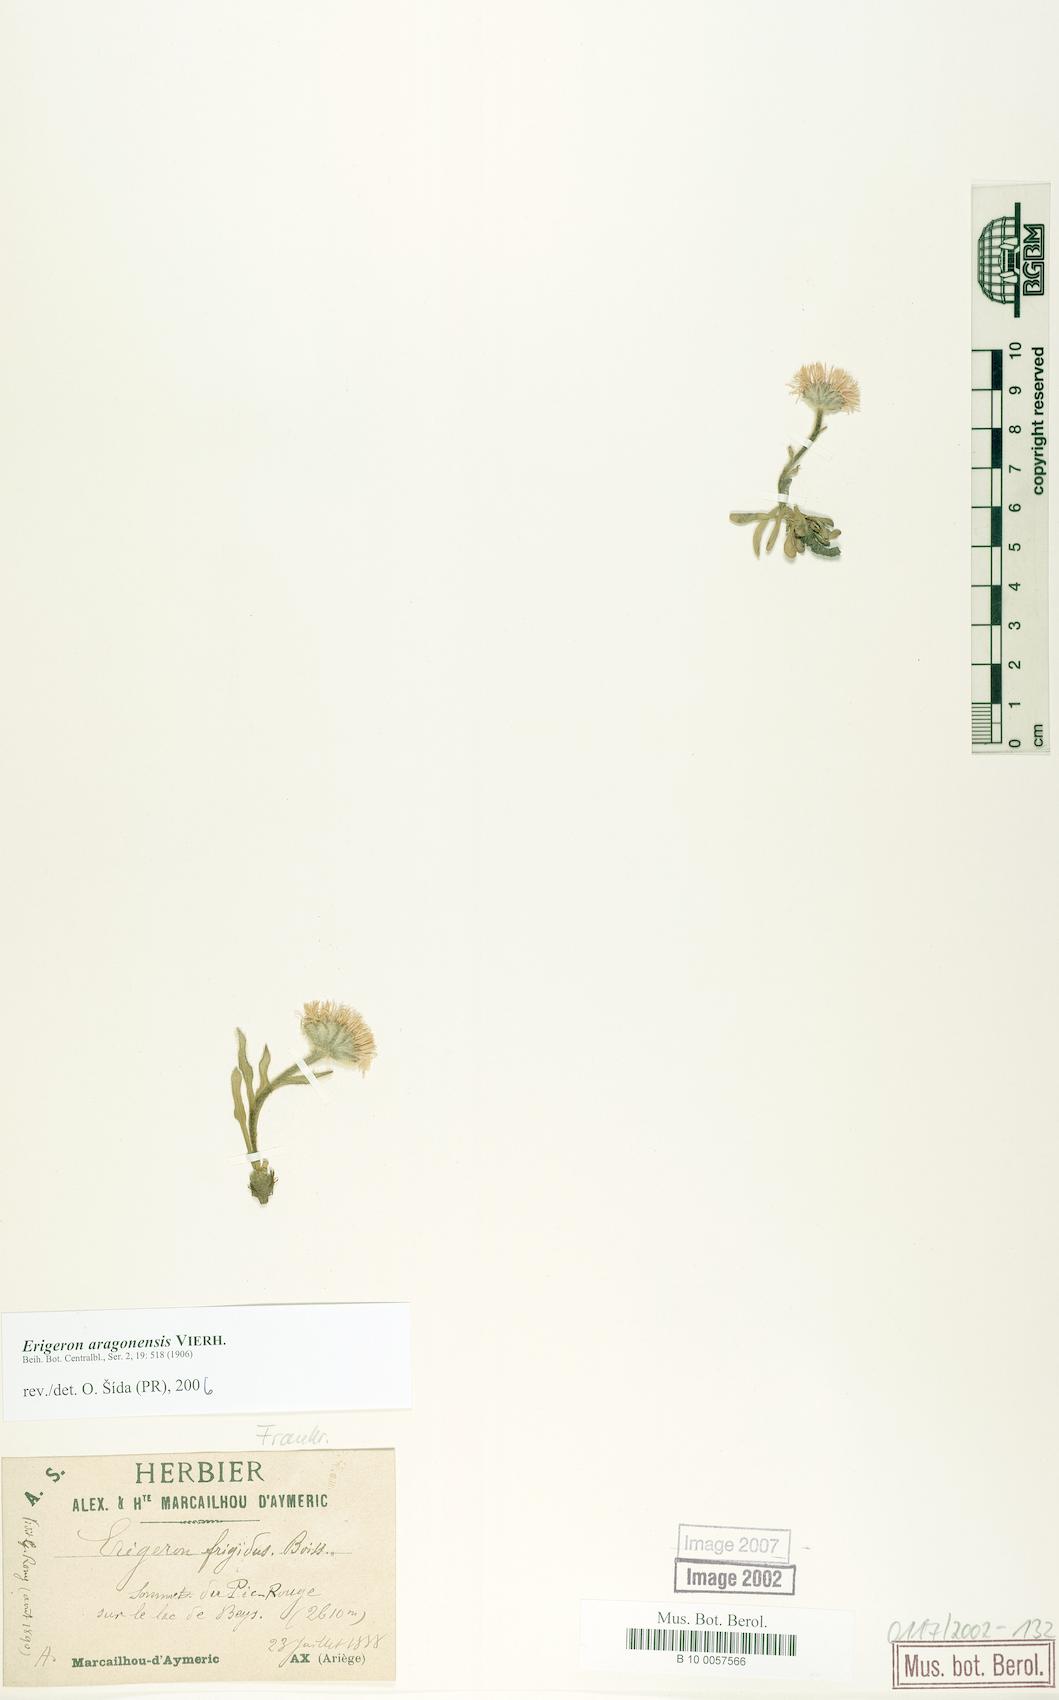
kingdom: Plantae
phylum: Tracheophyta
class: Magnoliopsida
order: Asterales
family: Asteraceae
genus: Erigeron
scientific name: Erigeron aragonensis
